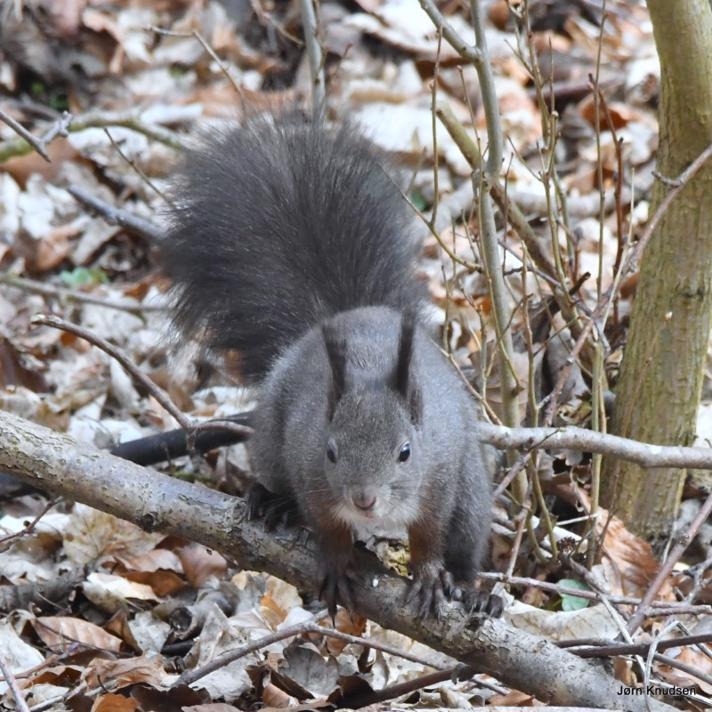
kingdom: Animalia
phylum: Chordata
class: Mammalia
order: Rodentia
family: Sciuridae
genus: Sciurus
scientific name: Sciurus vulgaris
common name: Egern
